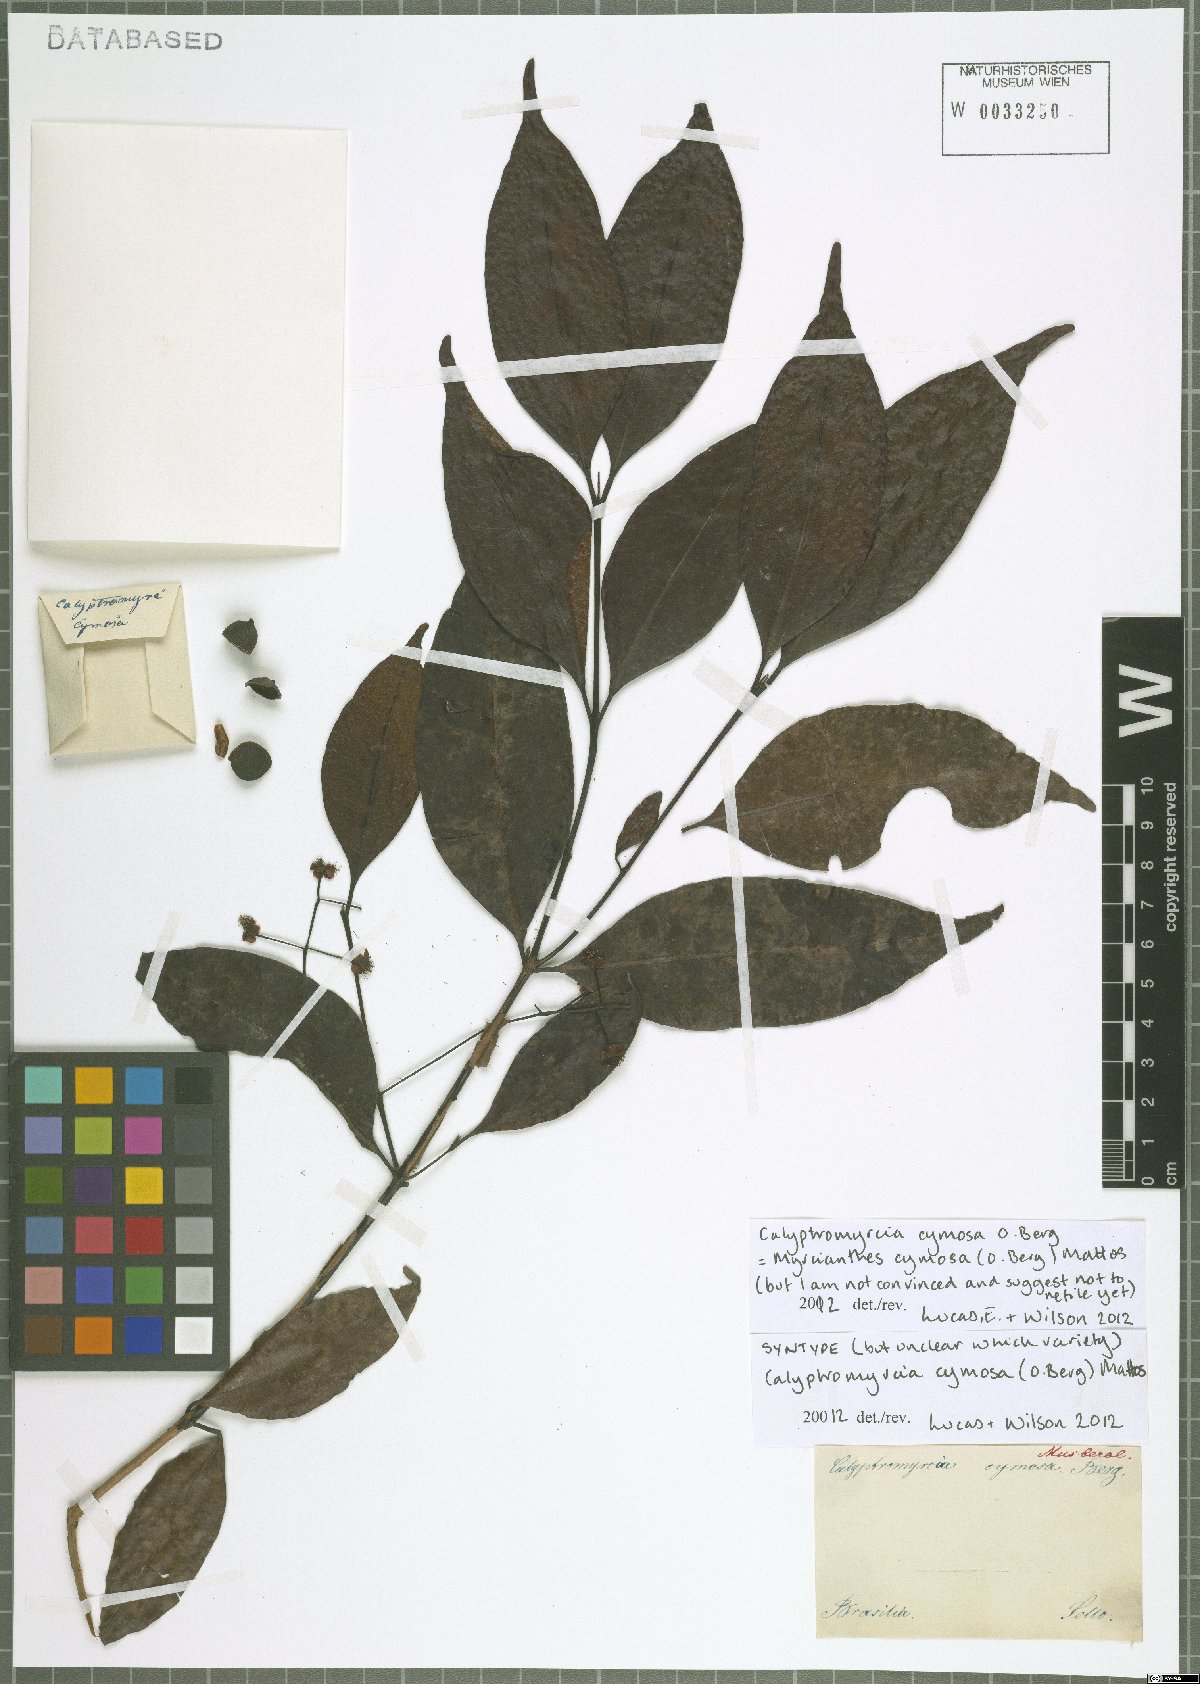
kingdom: Plantae
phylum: Tracheophyta
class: Magnoliopsida
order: Myrtales
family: Myrtaceae
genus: Myrcianthes
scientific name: Myrcianthes cymosa
